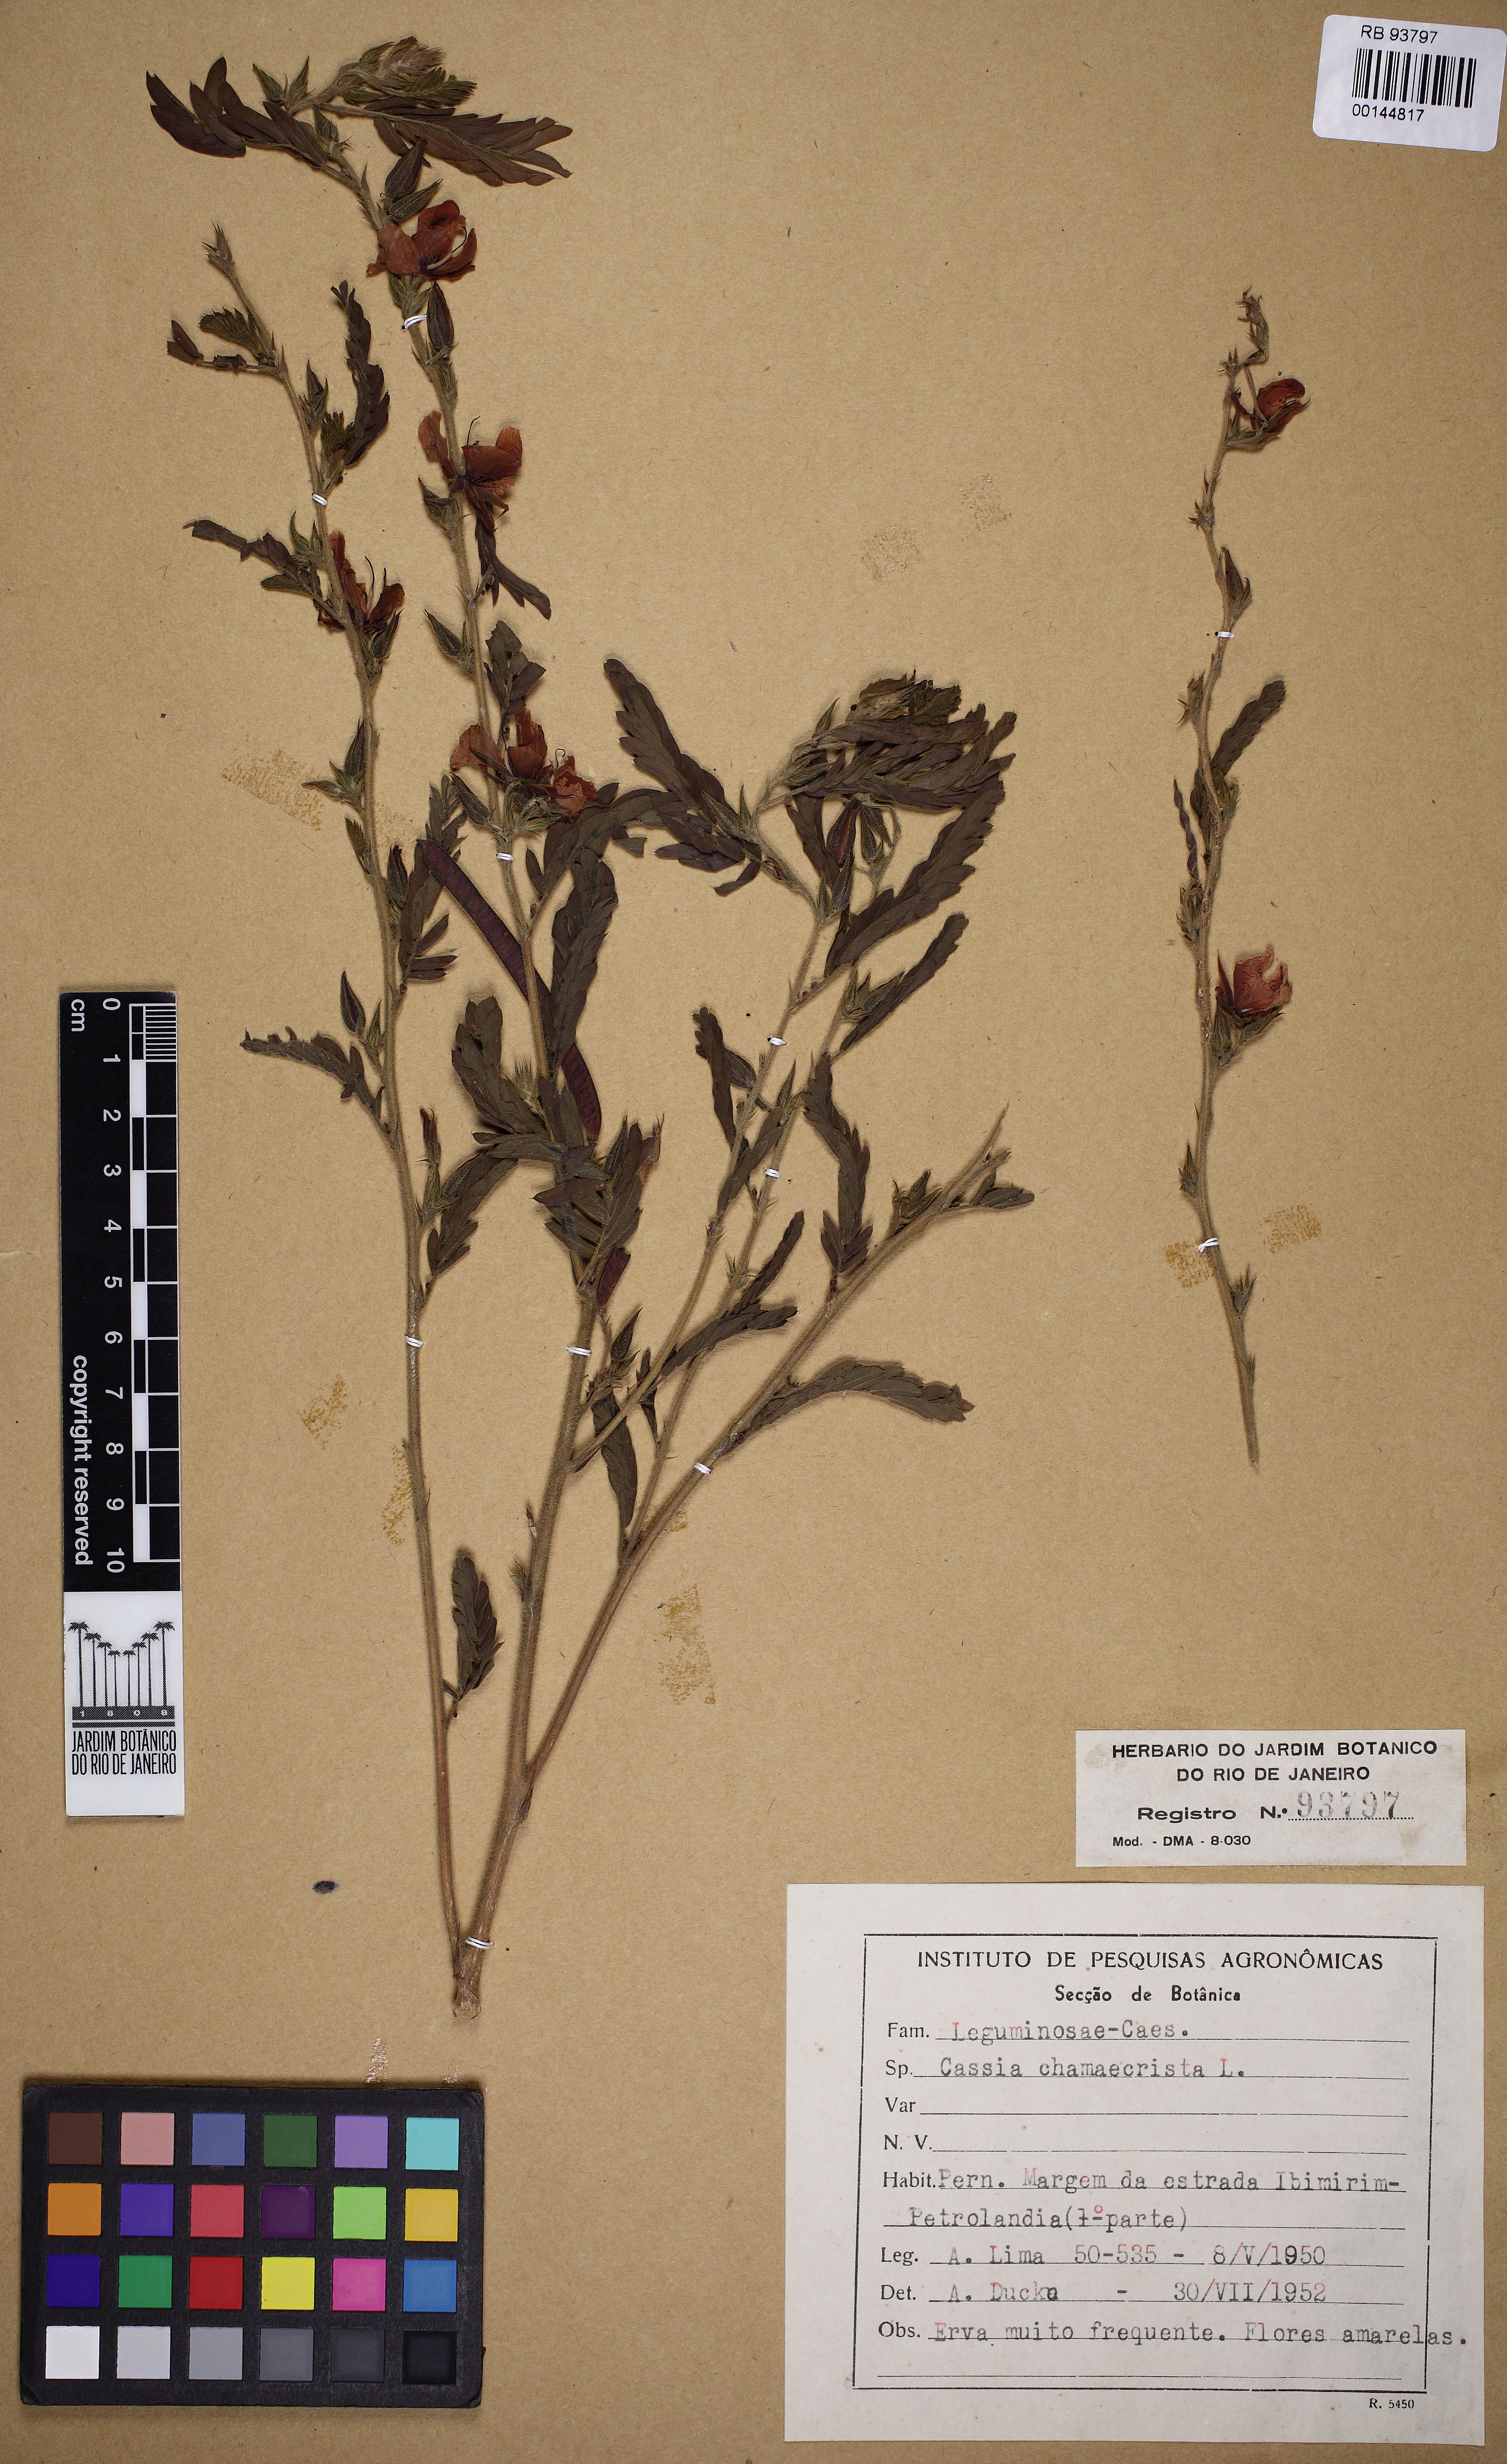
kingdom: Plantae
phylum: Tracheophyta
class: Magnoliopsida
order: Fabales
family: Fabaceae
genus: Chamaecrista
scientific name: Chamaecrista calycioides
